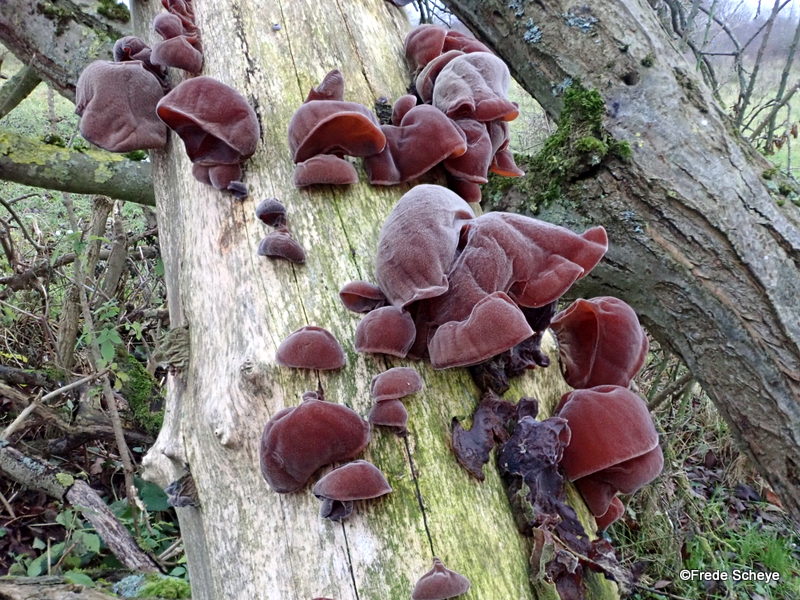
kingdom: Fungi
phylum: Basidiomycota
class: Agaricomycetes
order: Auriculariales
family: Auriculariaceae
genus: Auricularia
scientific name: Auricularia auricula-judae
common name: almindelig judasøre
